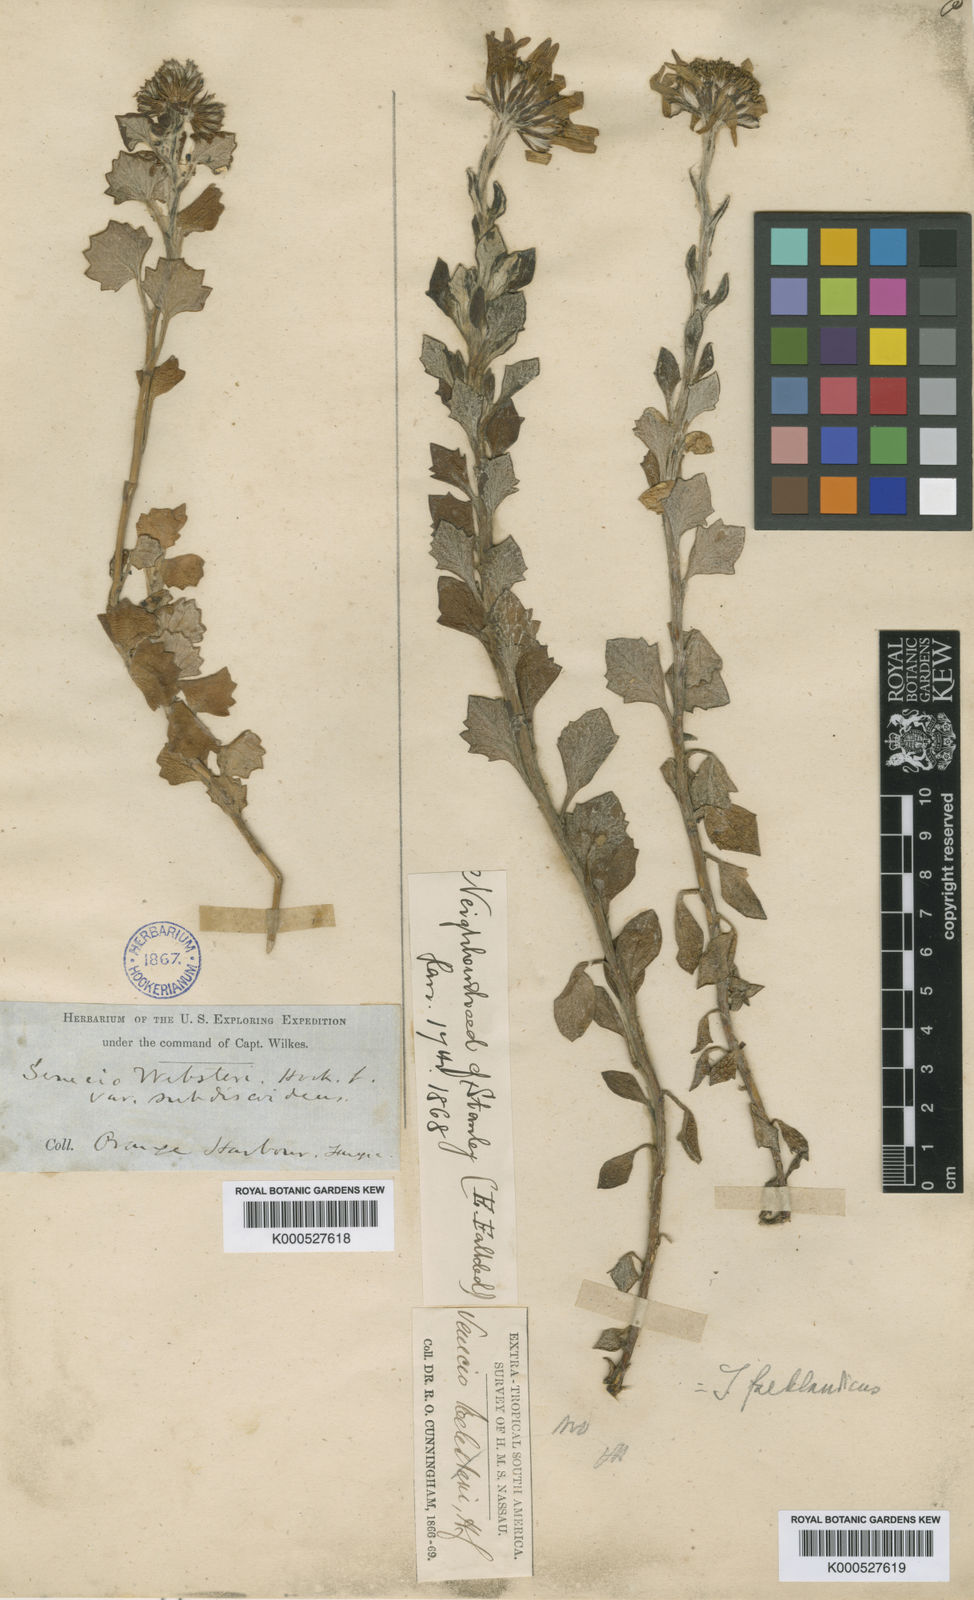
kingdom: Plantae
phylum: Tracheophyta
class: Magnoliopsida
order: Asterales
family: Asteraceae
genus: Senecio
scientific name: Senecio websteri
